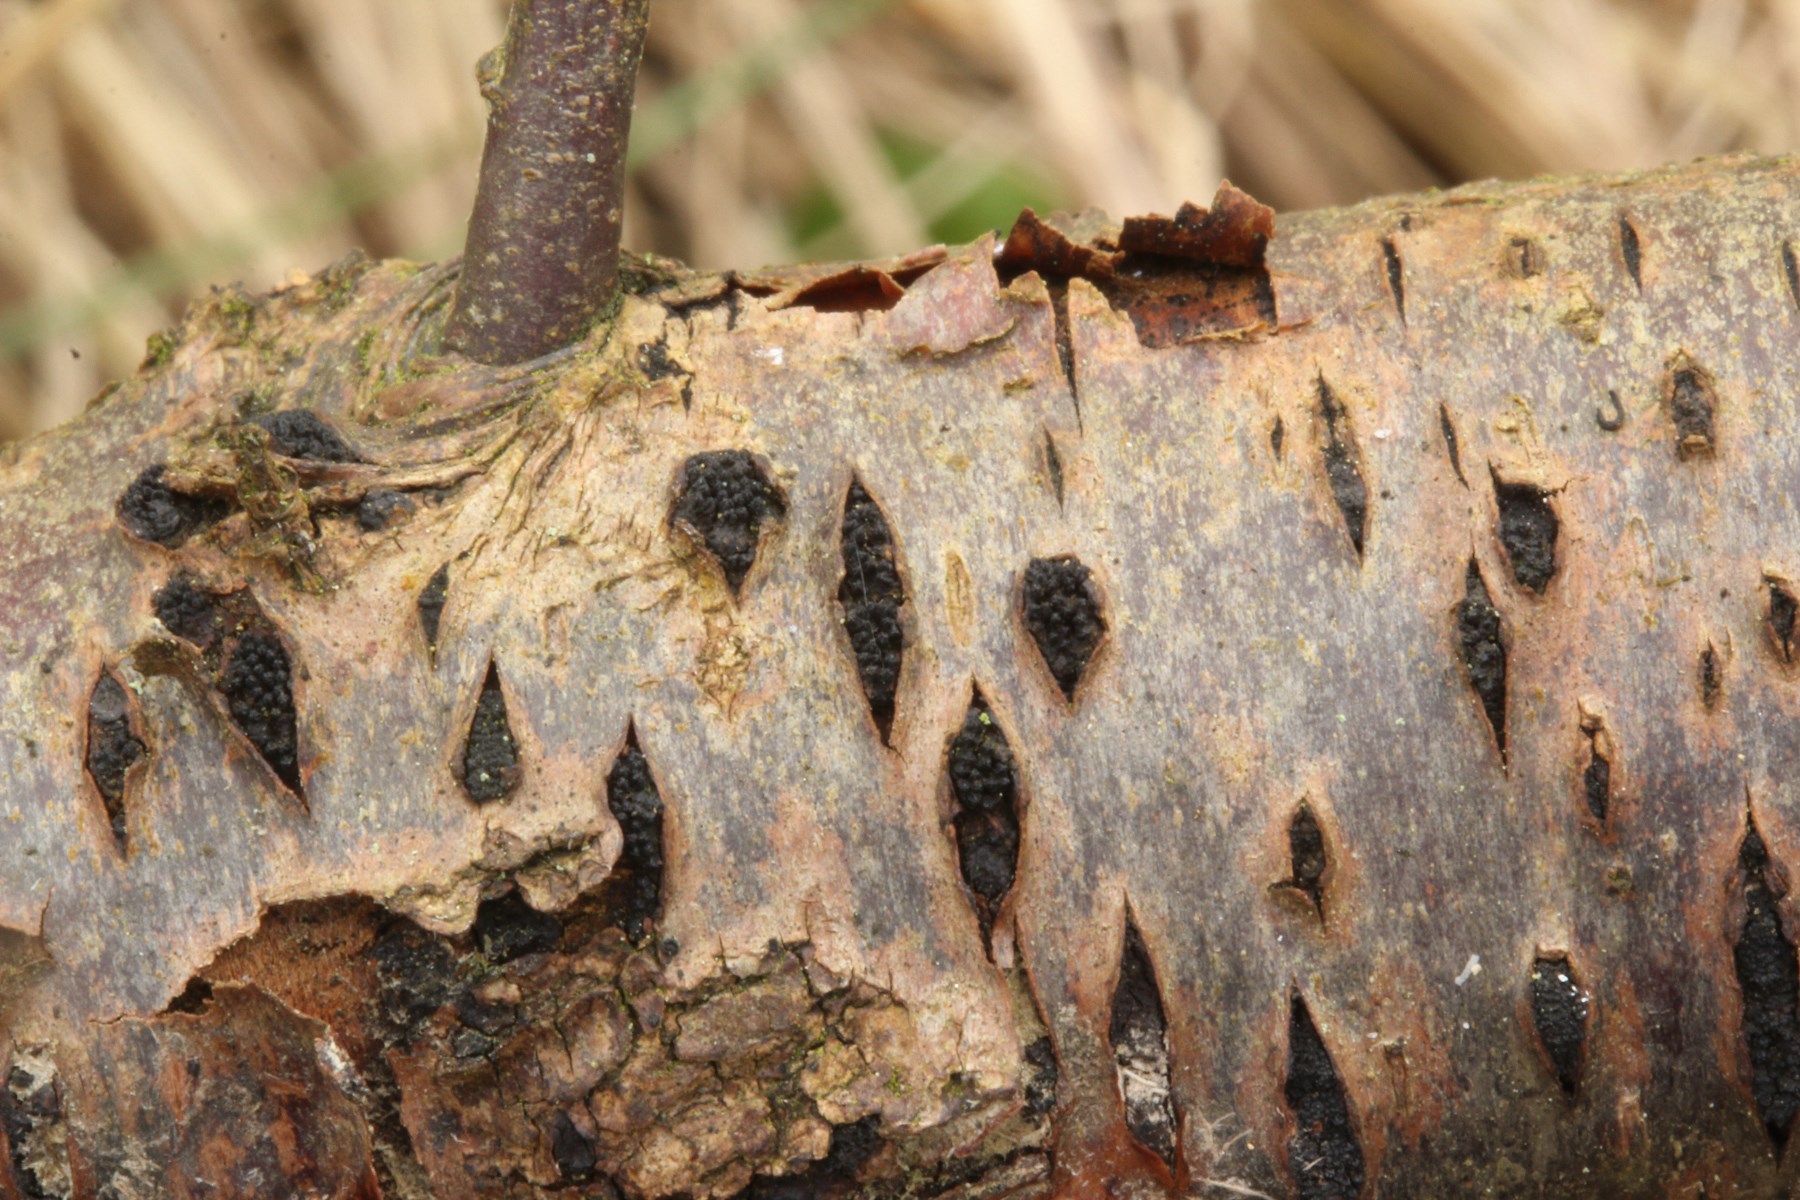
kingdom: Fungi
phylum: Ascomycota
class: Sordariomycetes
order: Xylariales
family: Diatrypaceae
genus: Eutypella
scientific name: Eutypella prunastri
